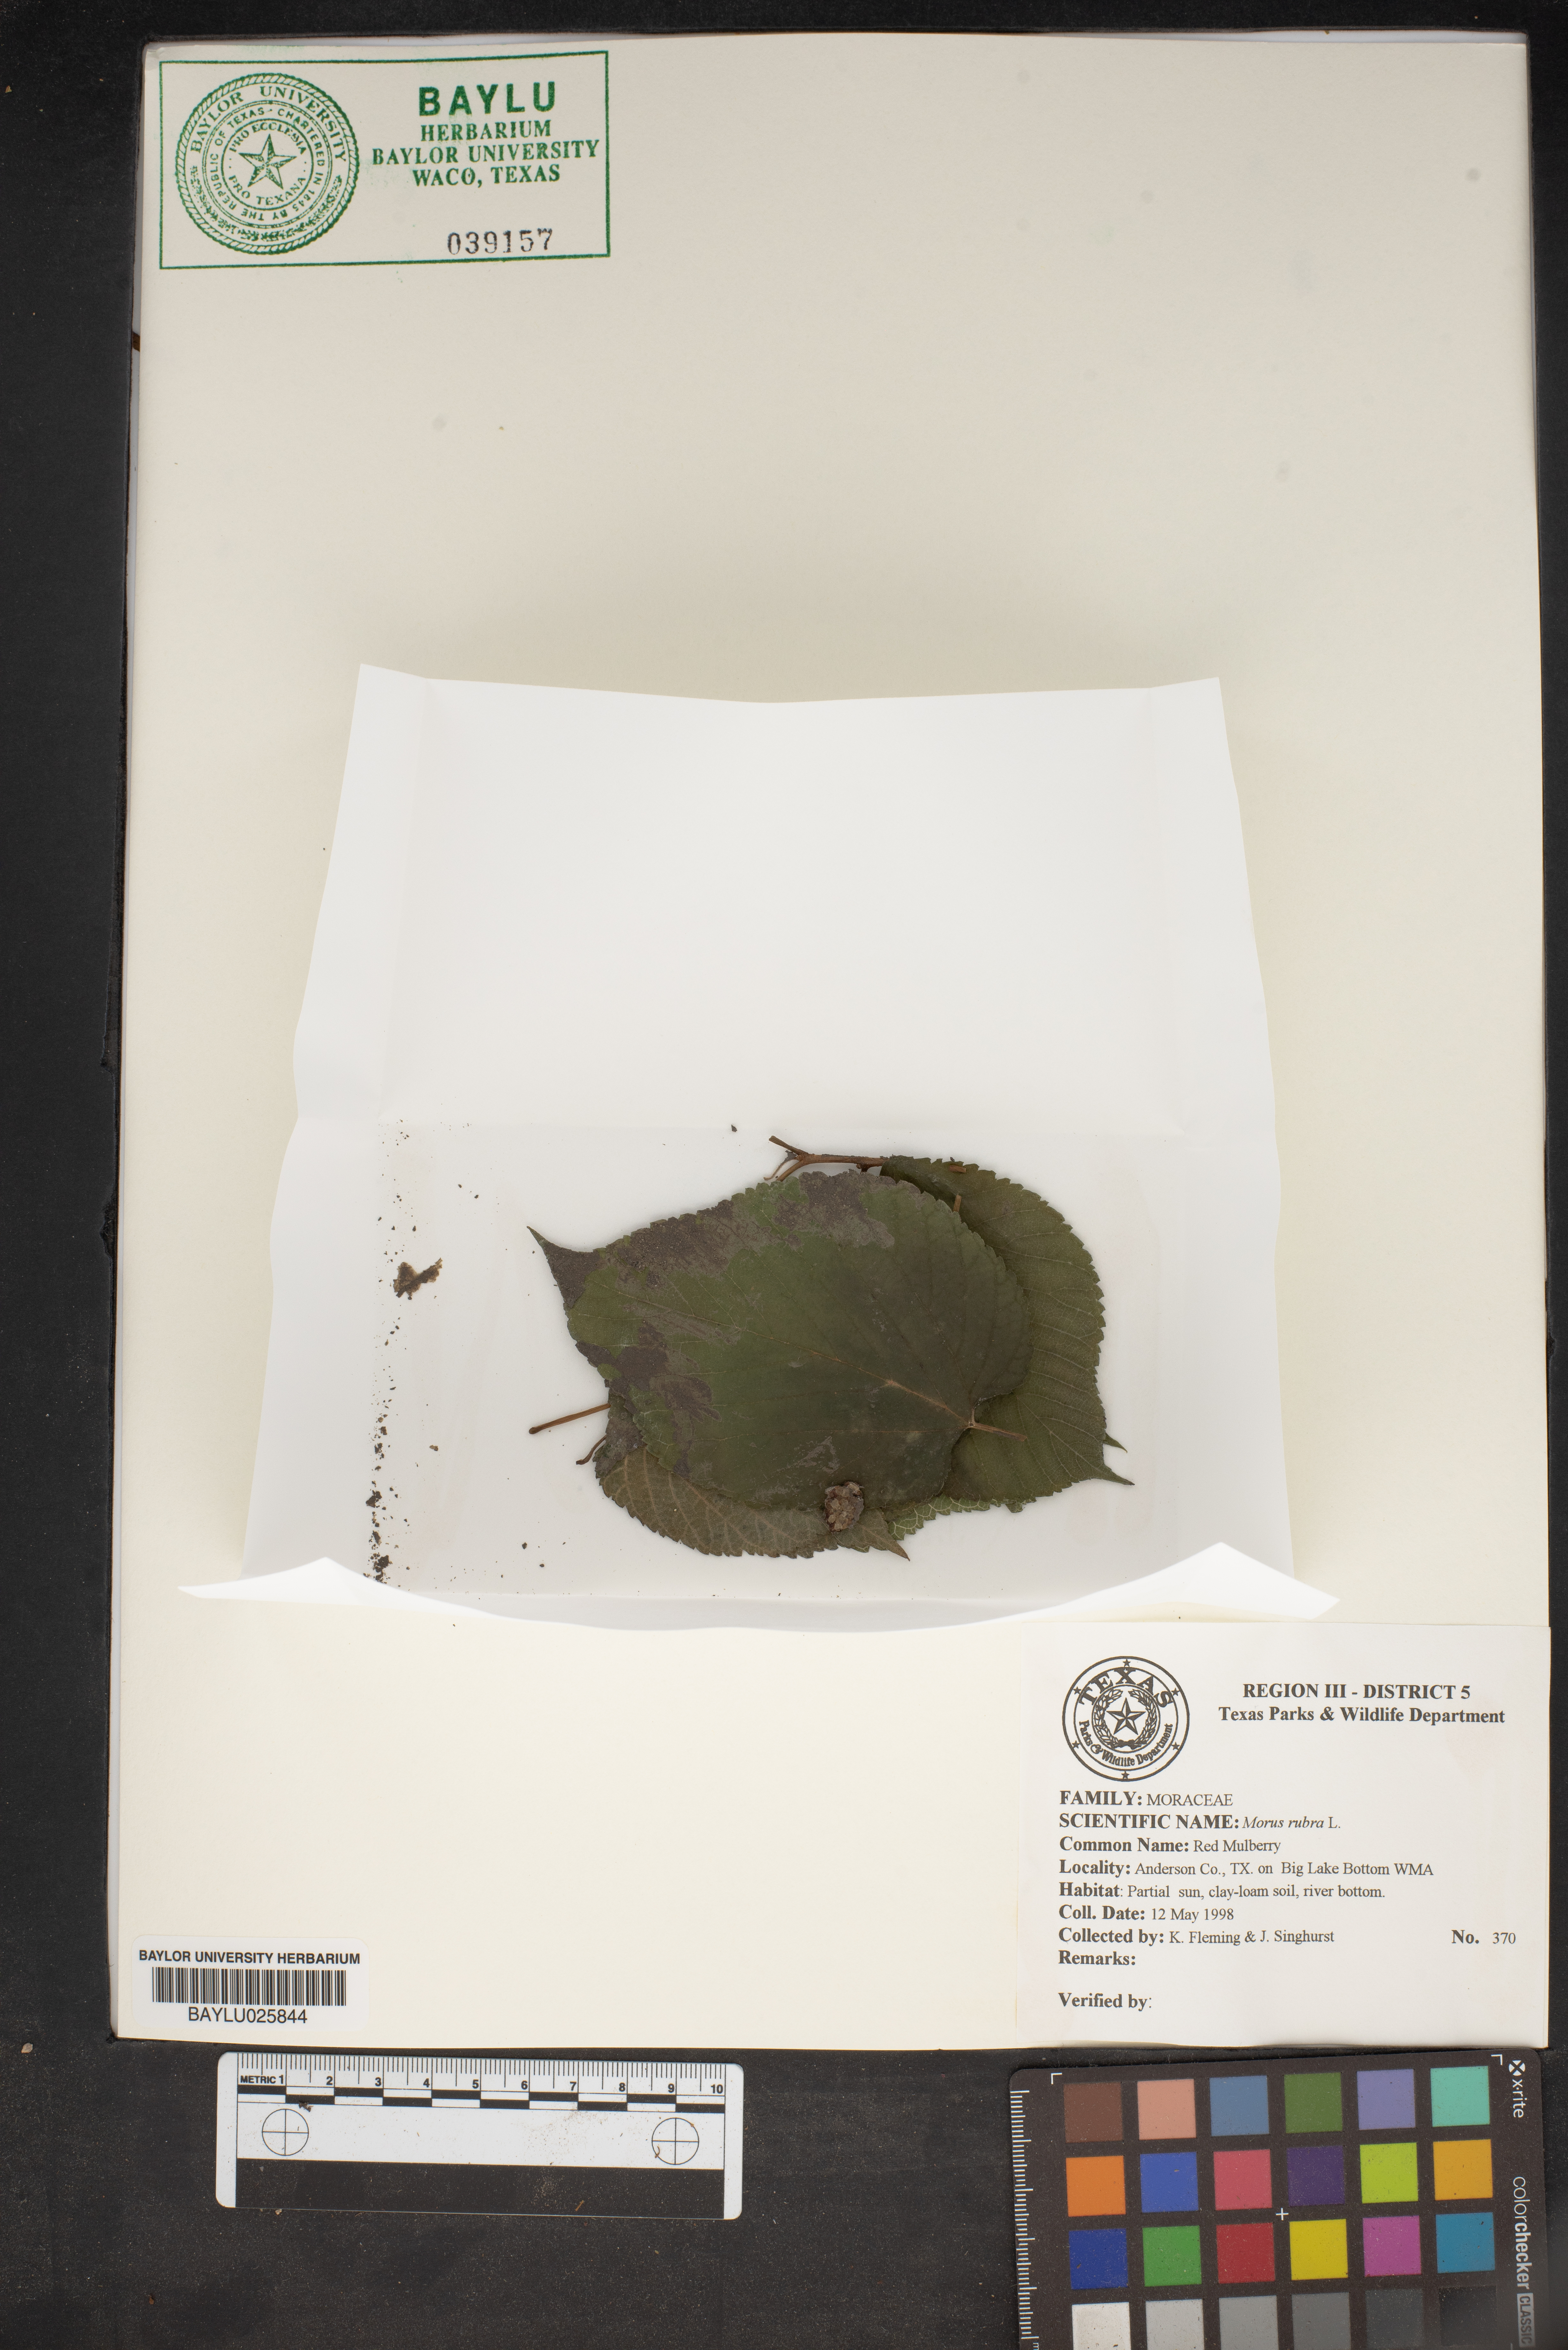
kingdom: Plantae
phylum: Tracheophyta
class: Magnoliopsida
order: Rosales
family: Moraceae
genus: Morus
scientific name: Morus rubra
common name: Red mulberry
